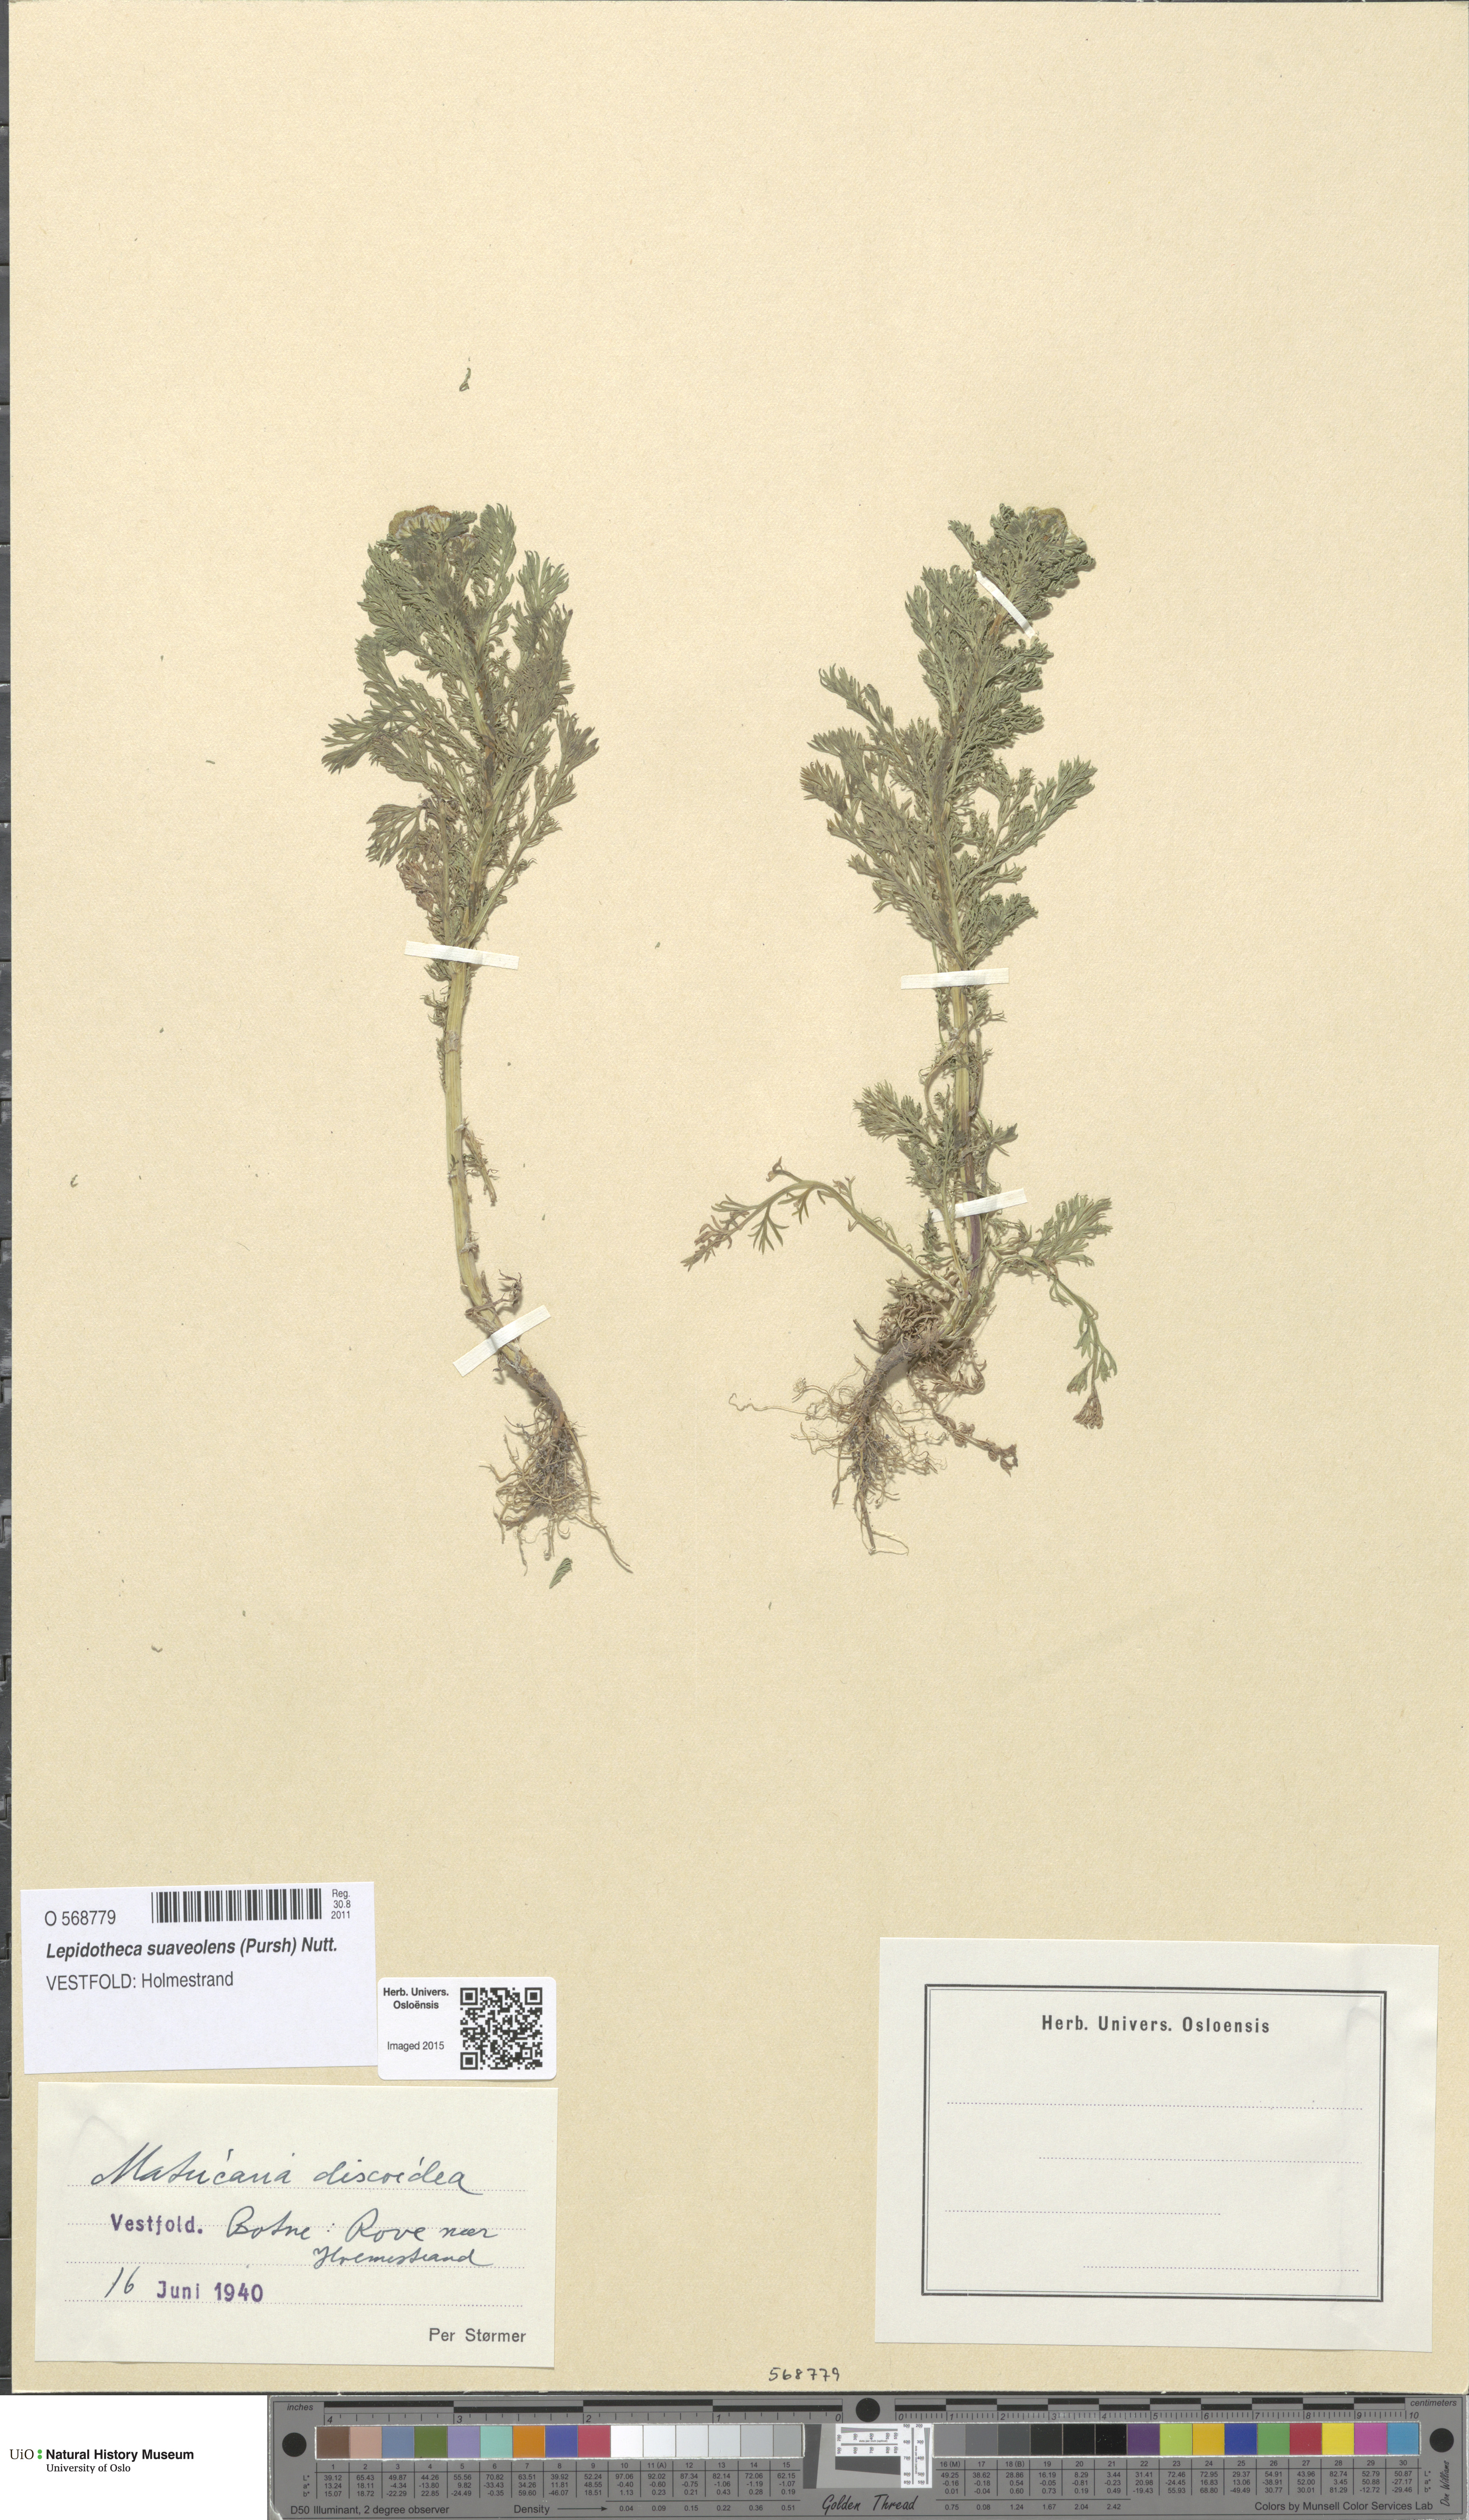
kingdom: Plantae
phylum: Tracheophyta
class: Magnoliopsida
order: Asterales
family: Asteraceae
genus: Matricaria
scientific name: Matricaria discoidea
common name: Disc mayweed
